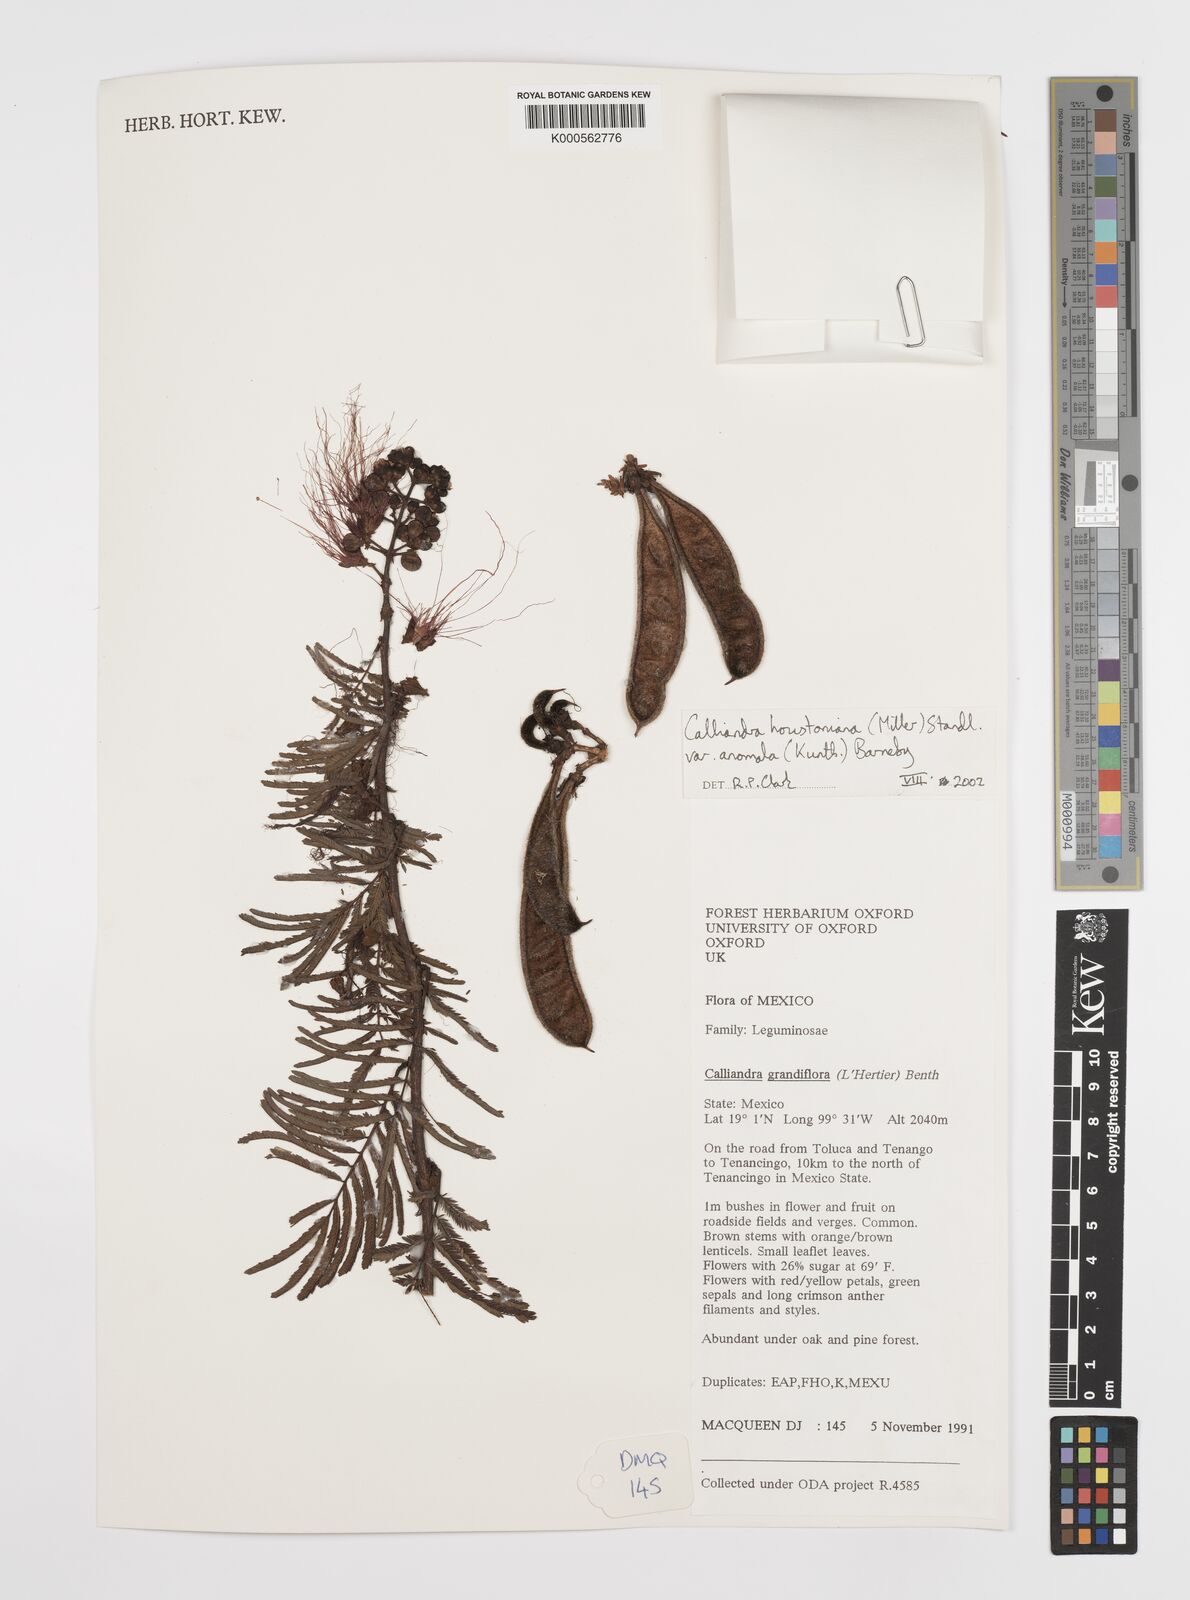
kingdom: Plantae
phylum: Tracheophyta
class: Magnoliopsida
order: Fabales
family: Fabaceae
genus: Calliandra
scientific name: Calliandra houstoniana
